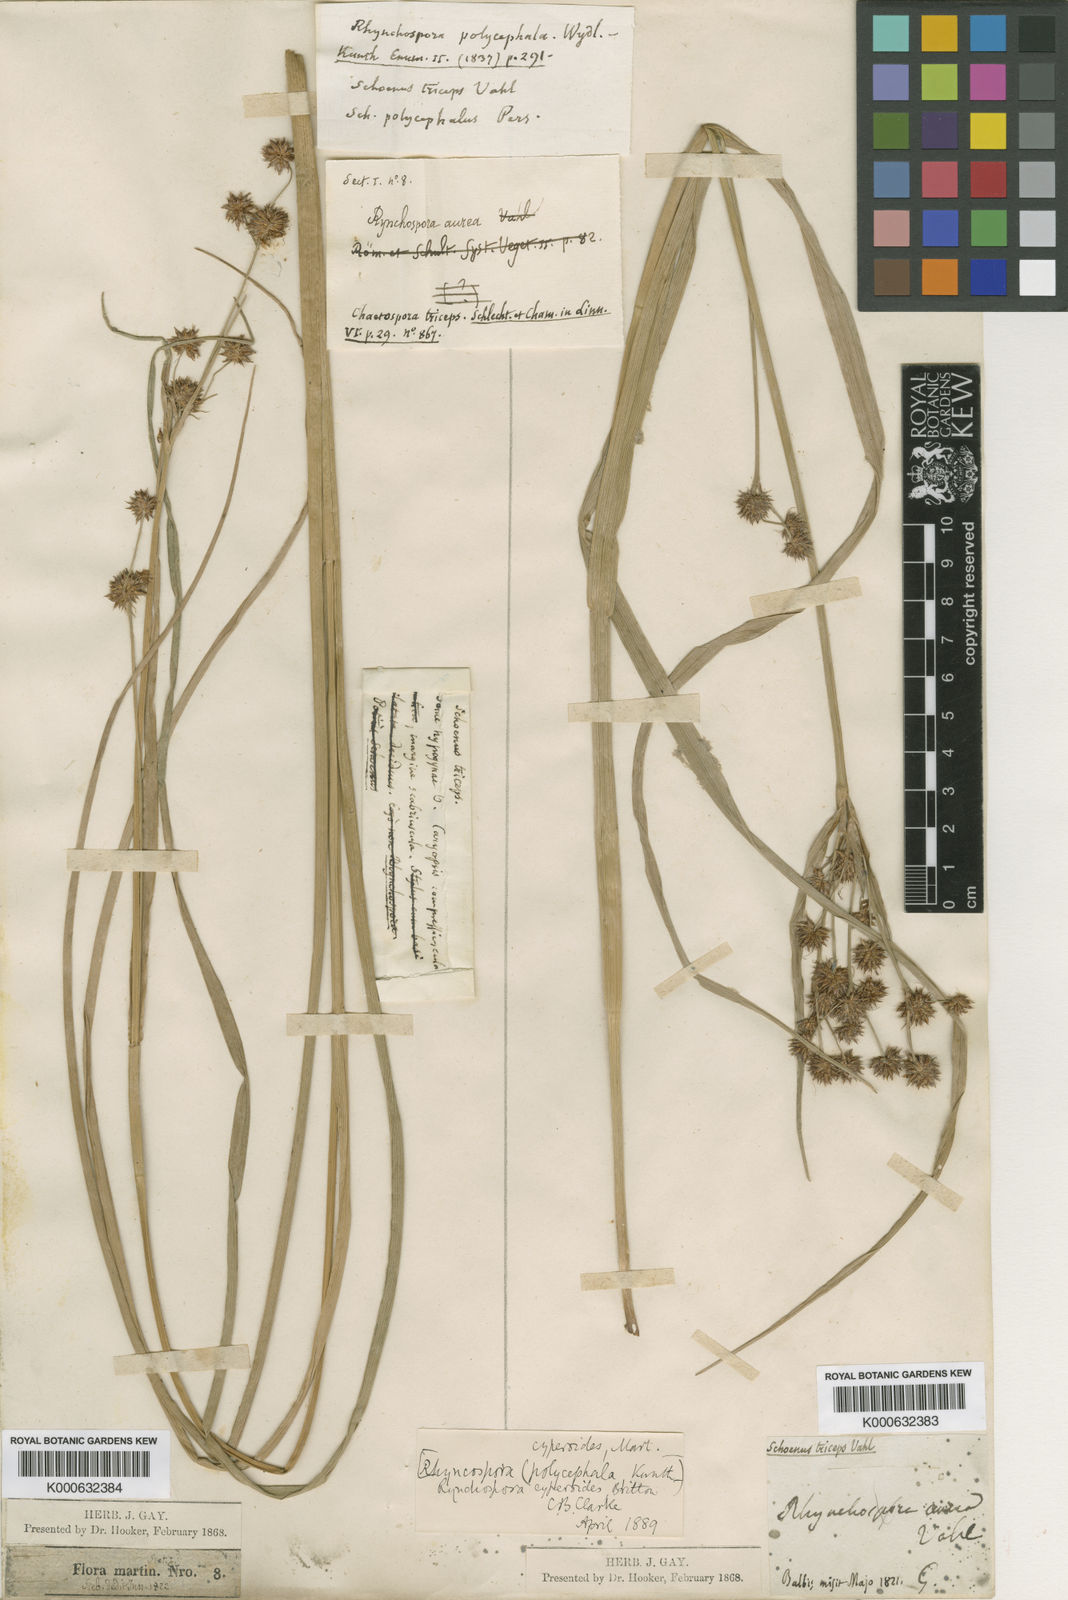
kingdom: Plantae
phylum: Tracheophyta
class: Liliopsida
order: Poales
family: Cyperaceae
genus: Rhynchospora
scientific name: Rhynchospora holoschoenoides
